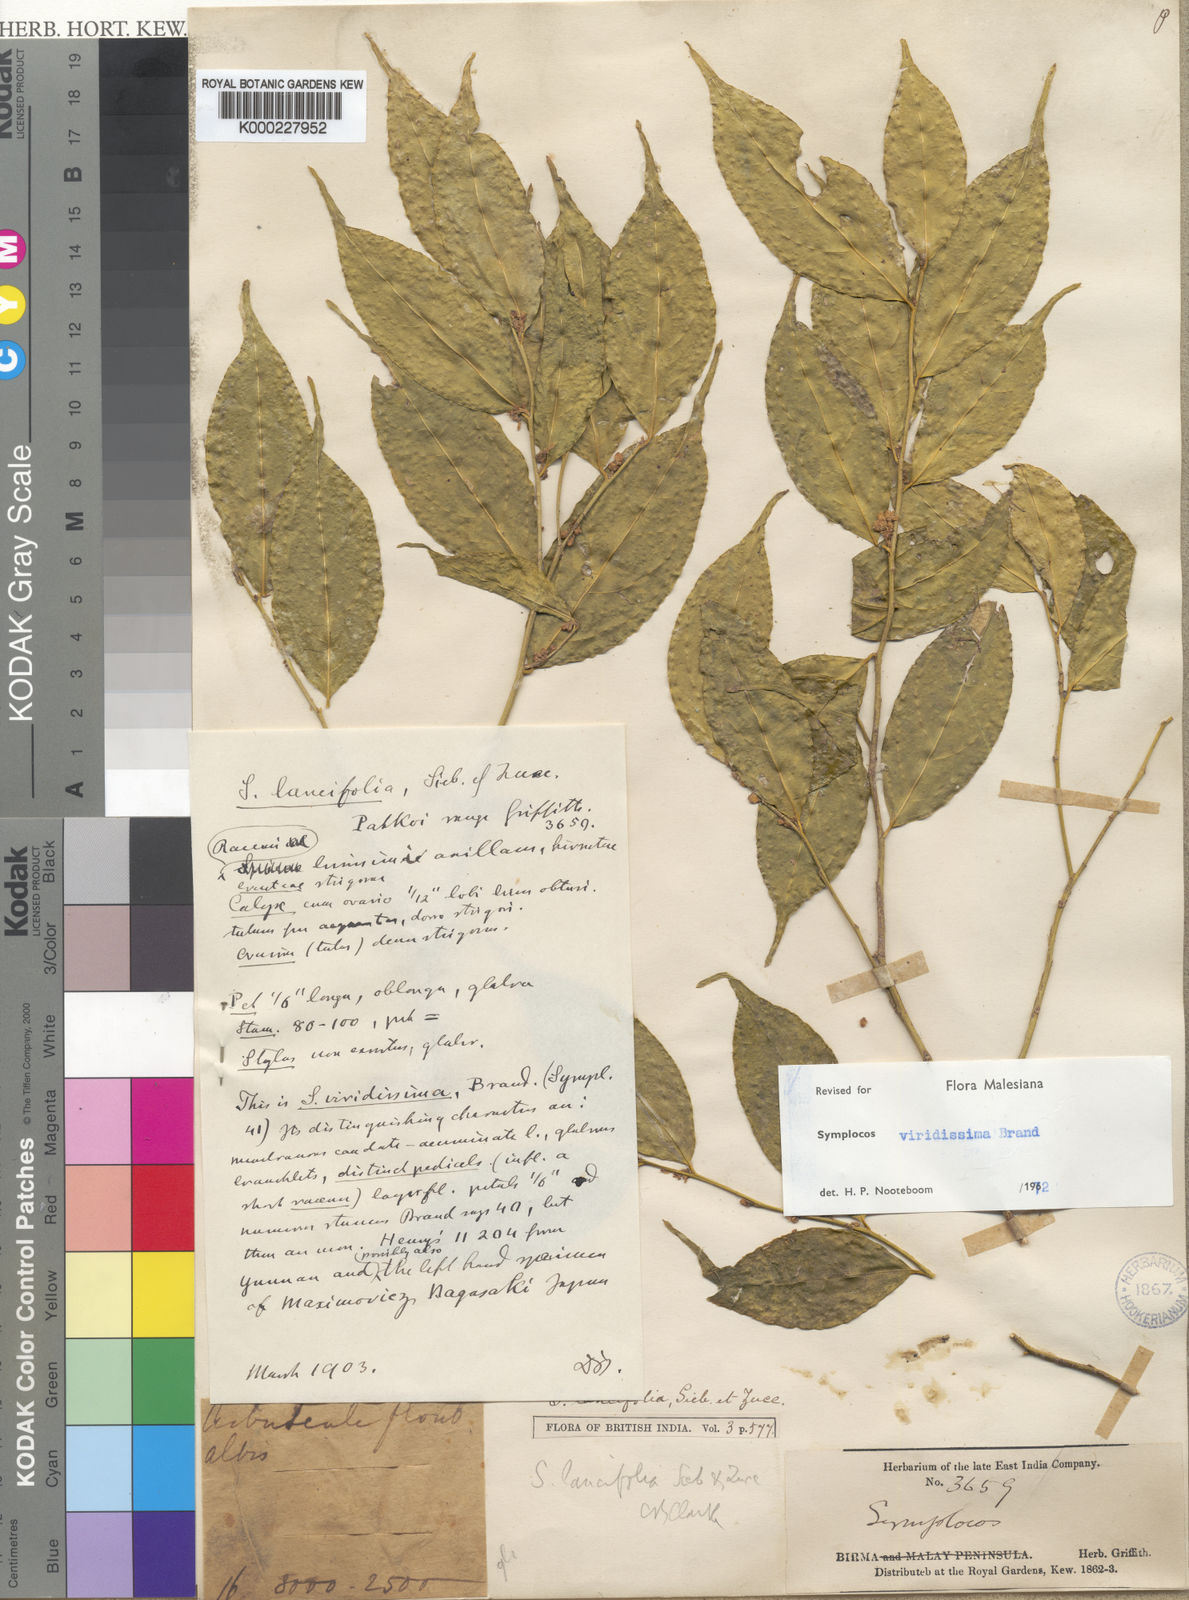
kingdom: Plantae
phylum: Tracheophyta
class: Magnoliopsida
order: Ericales
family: Symplocaceae
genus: Symplocos
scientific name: Symplocos viridissima
